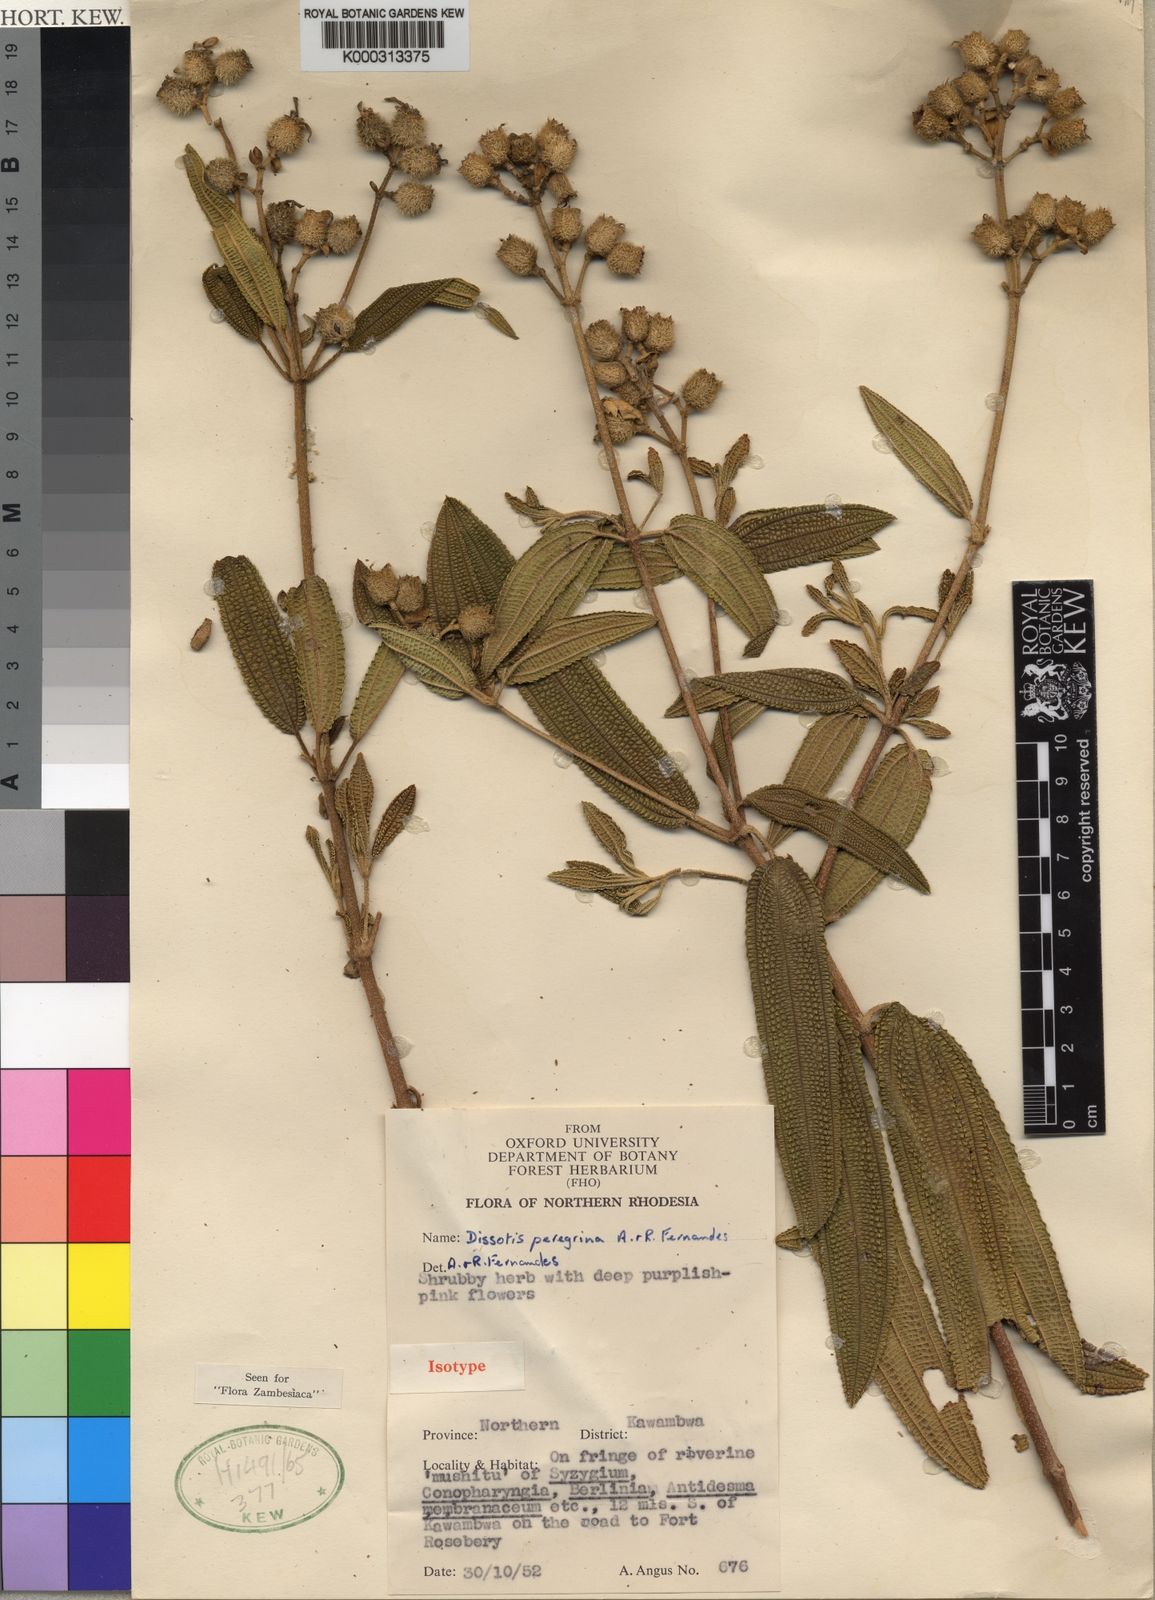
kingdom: Plantae
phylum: Tracheophyta
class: Magnoliopsida
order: Myrtales
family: Melastomataceae
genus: Rosettea
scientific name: Rosettea peregrina
